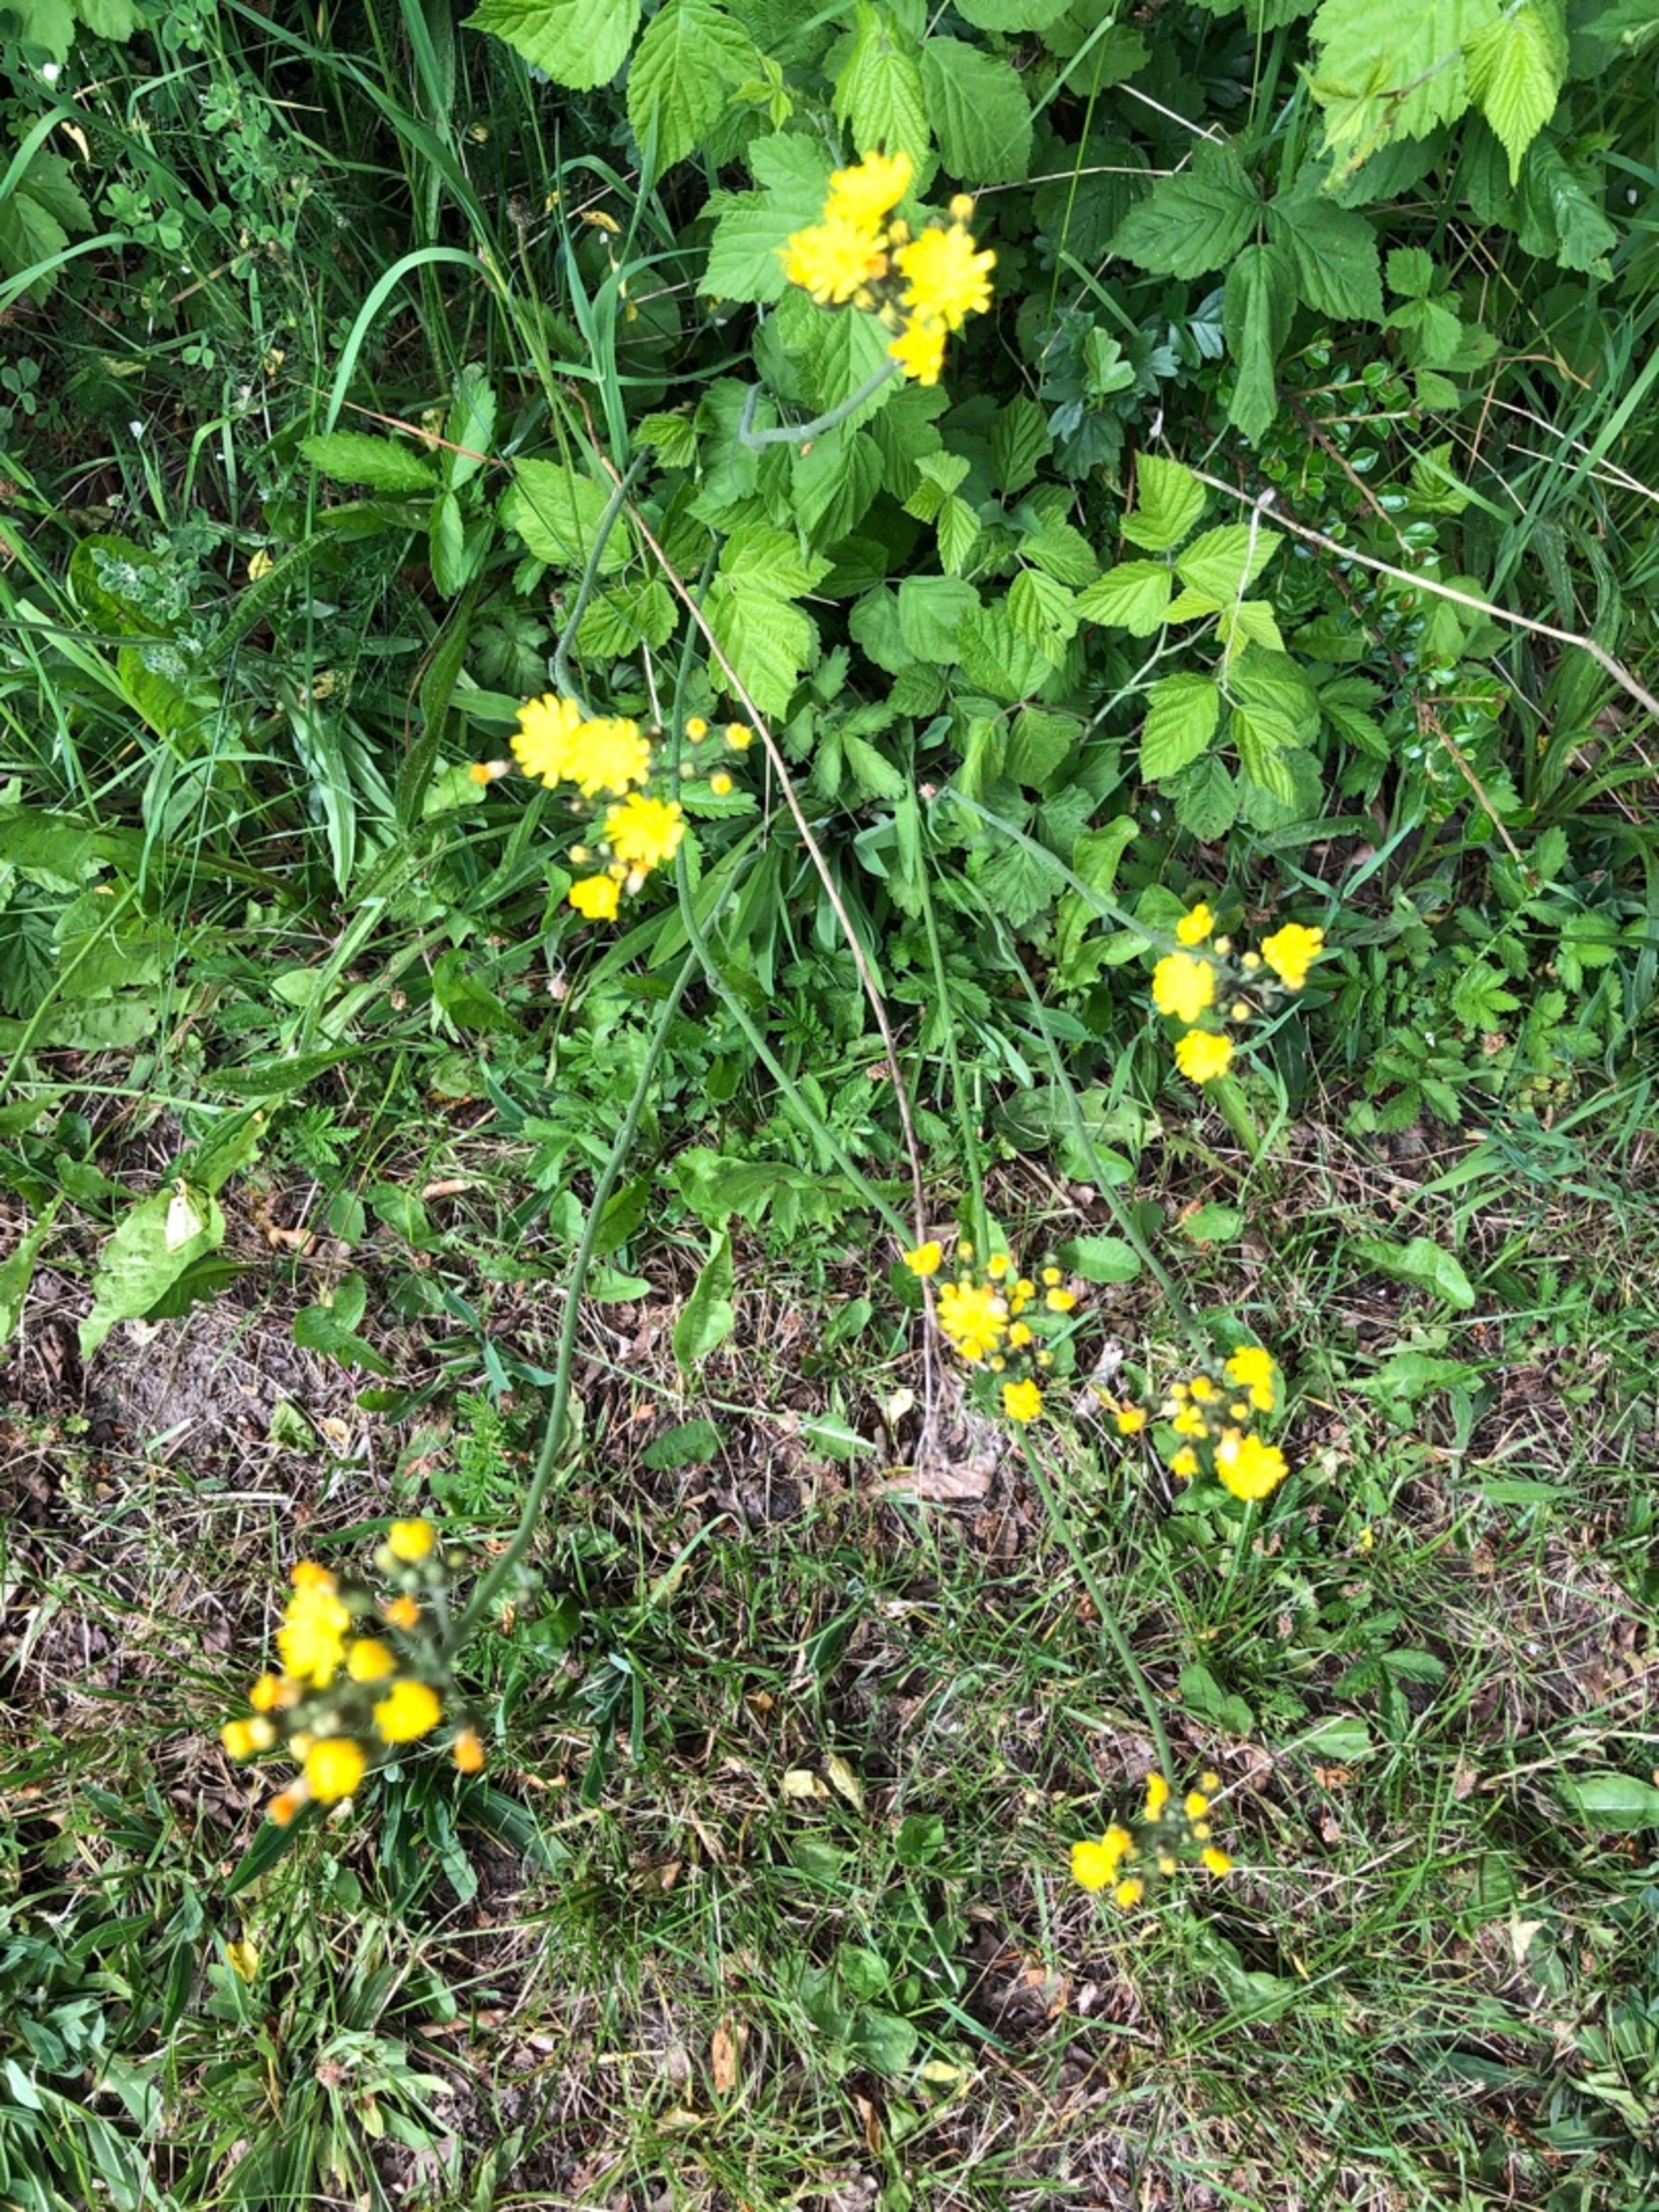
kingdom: Plantae
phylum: Tracheophyta
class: Magnoliopsida
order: Asterales
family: Asteraceae
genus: Pilosella
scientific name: Pilosella cymosa
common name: Blød kvast-høgeurt
